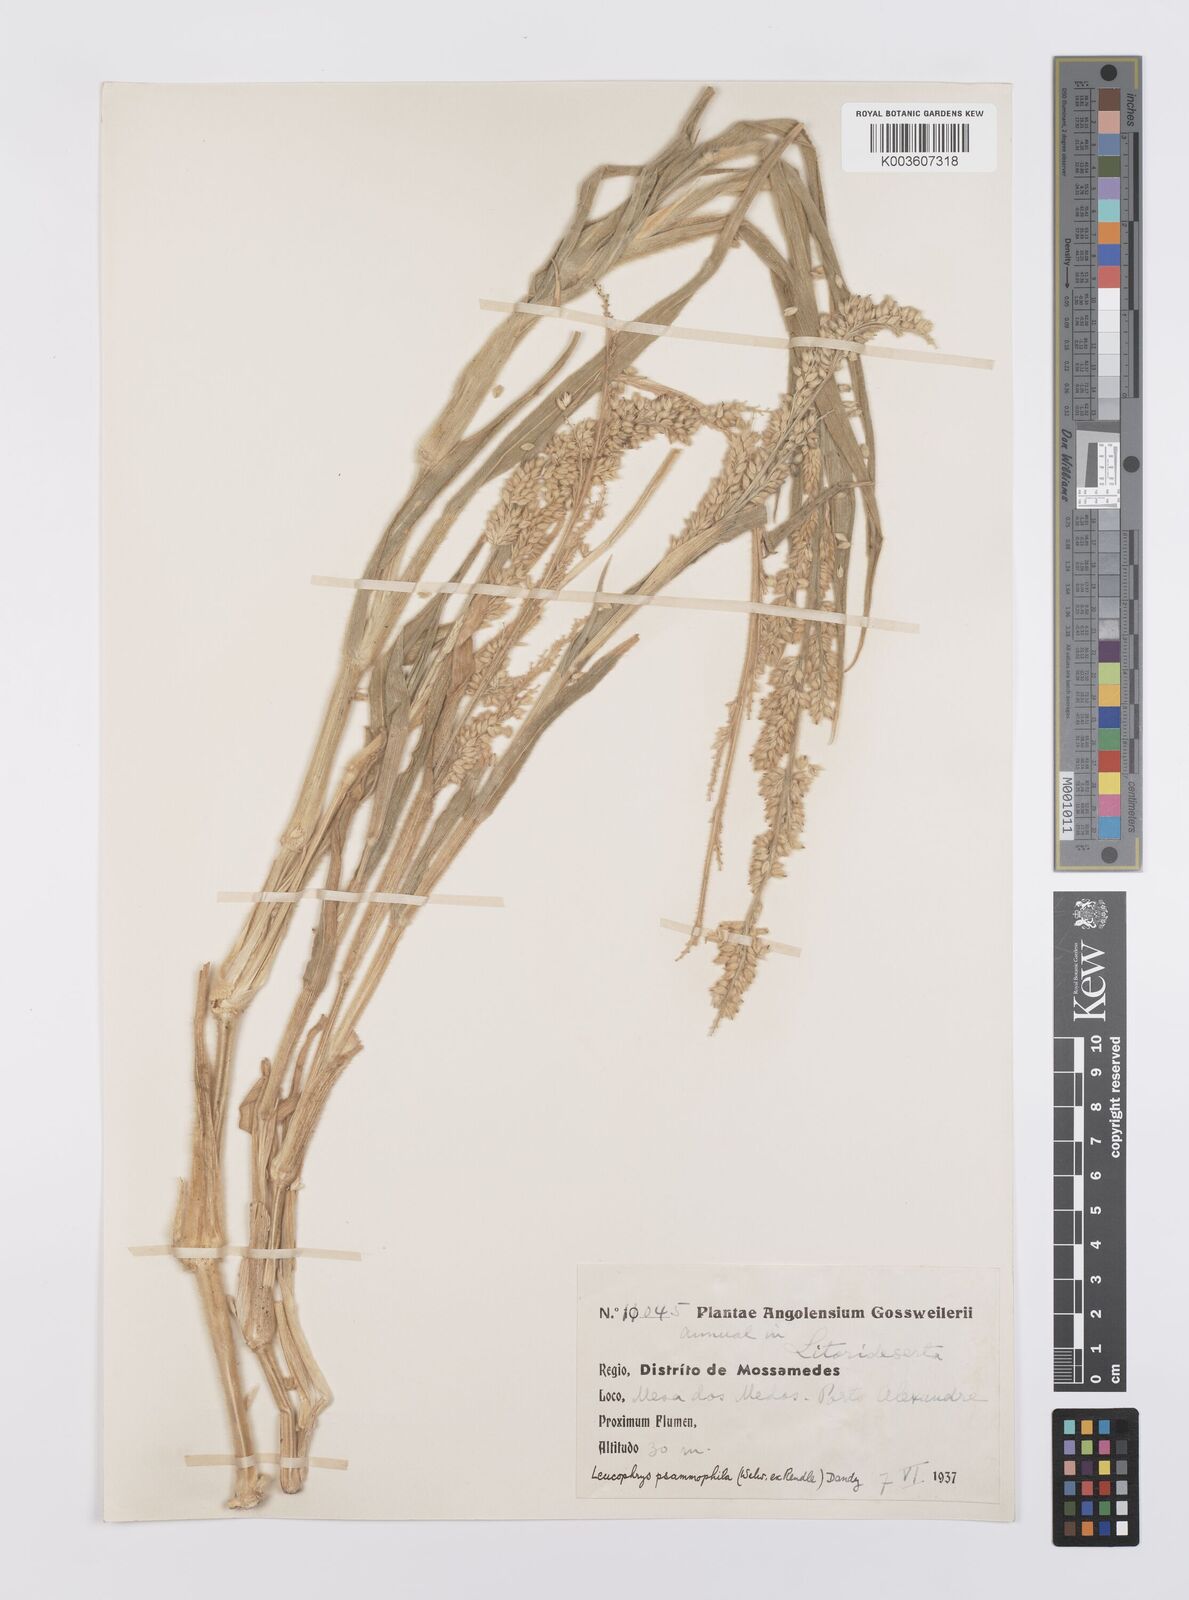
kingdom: Plantae
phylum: Tracheophyta
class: Liliopsida
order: Poales
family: Poaceae
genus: Urochloa
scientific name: Urochloa Brachiaria psammophila
